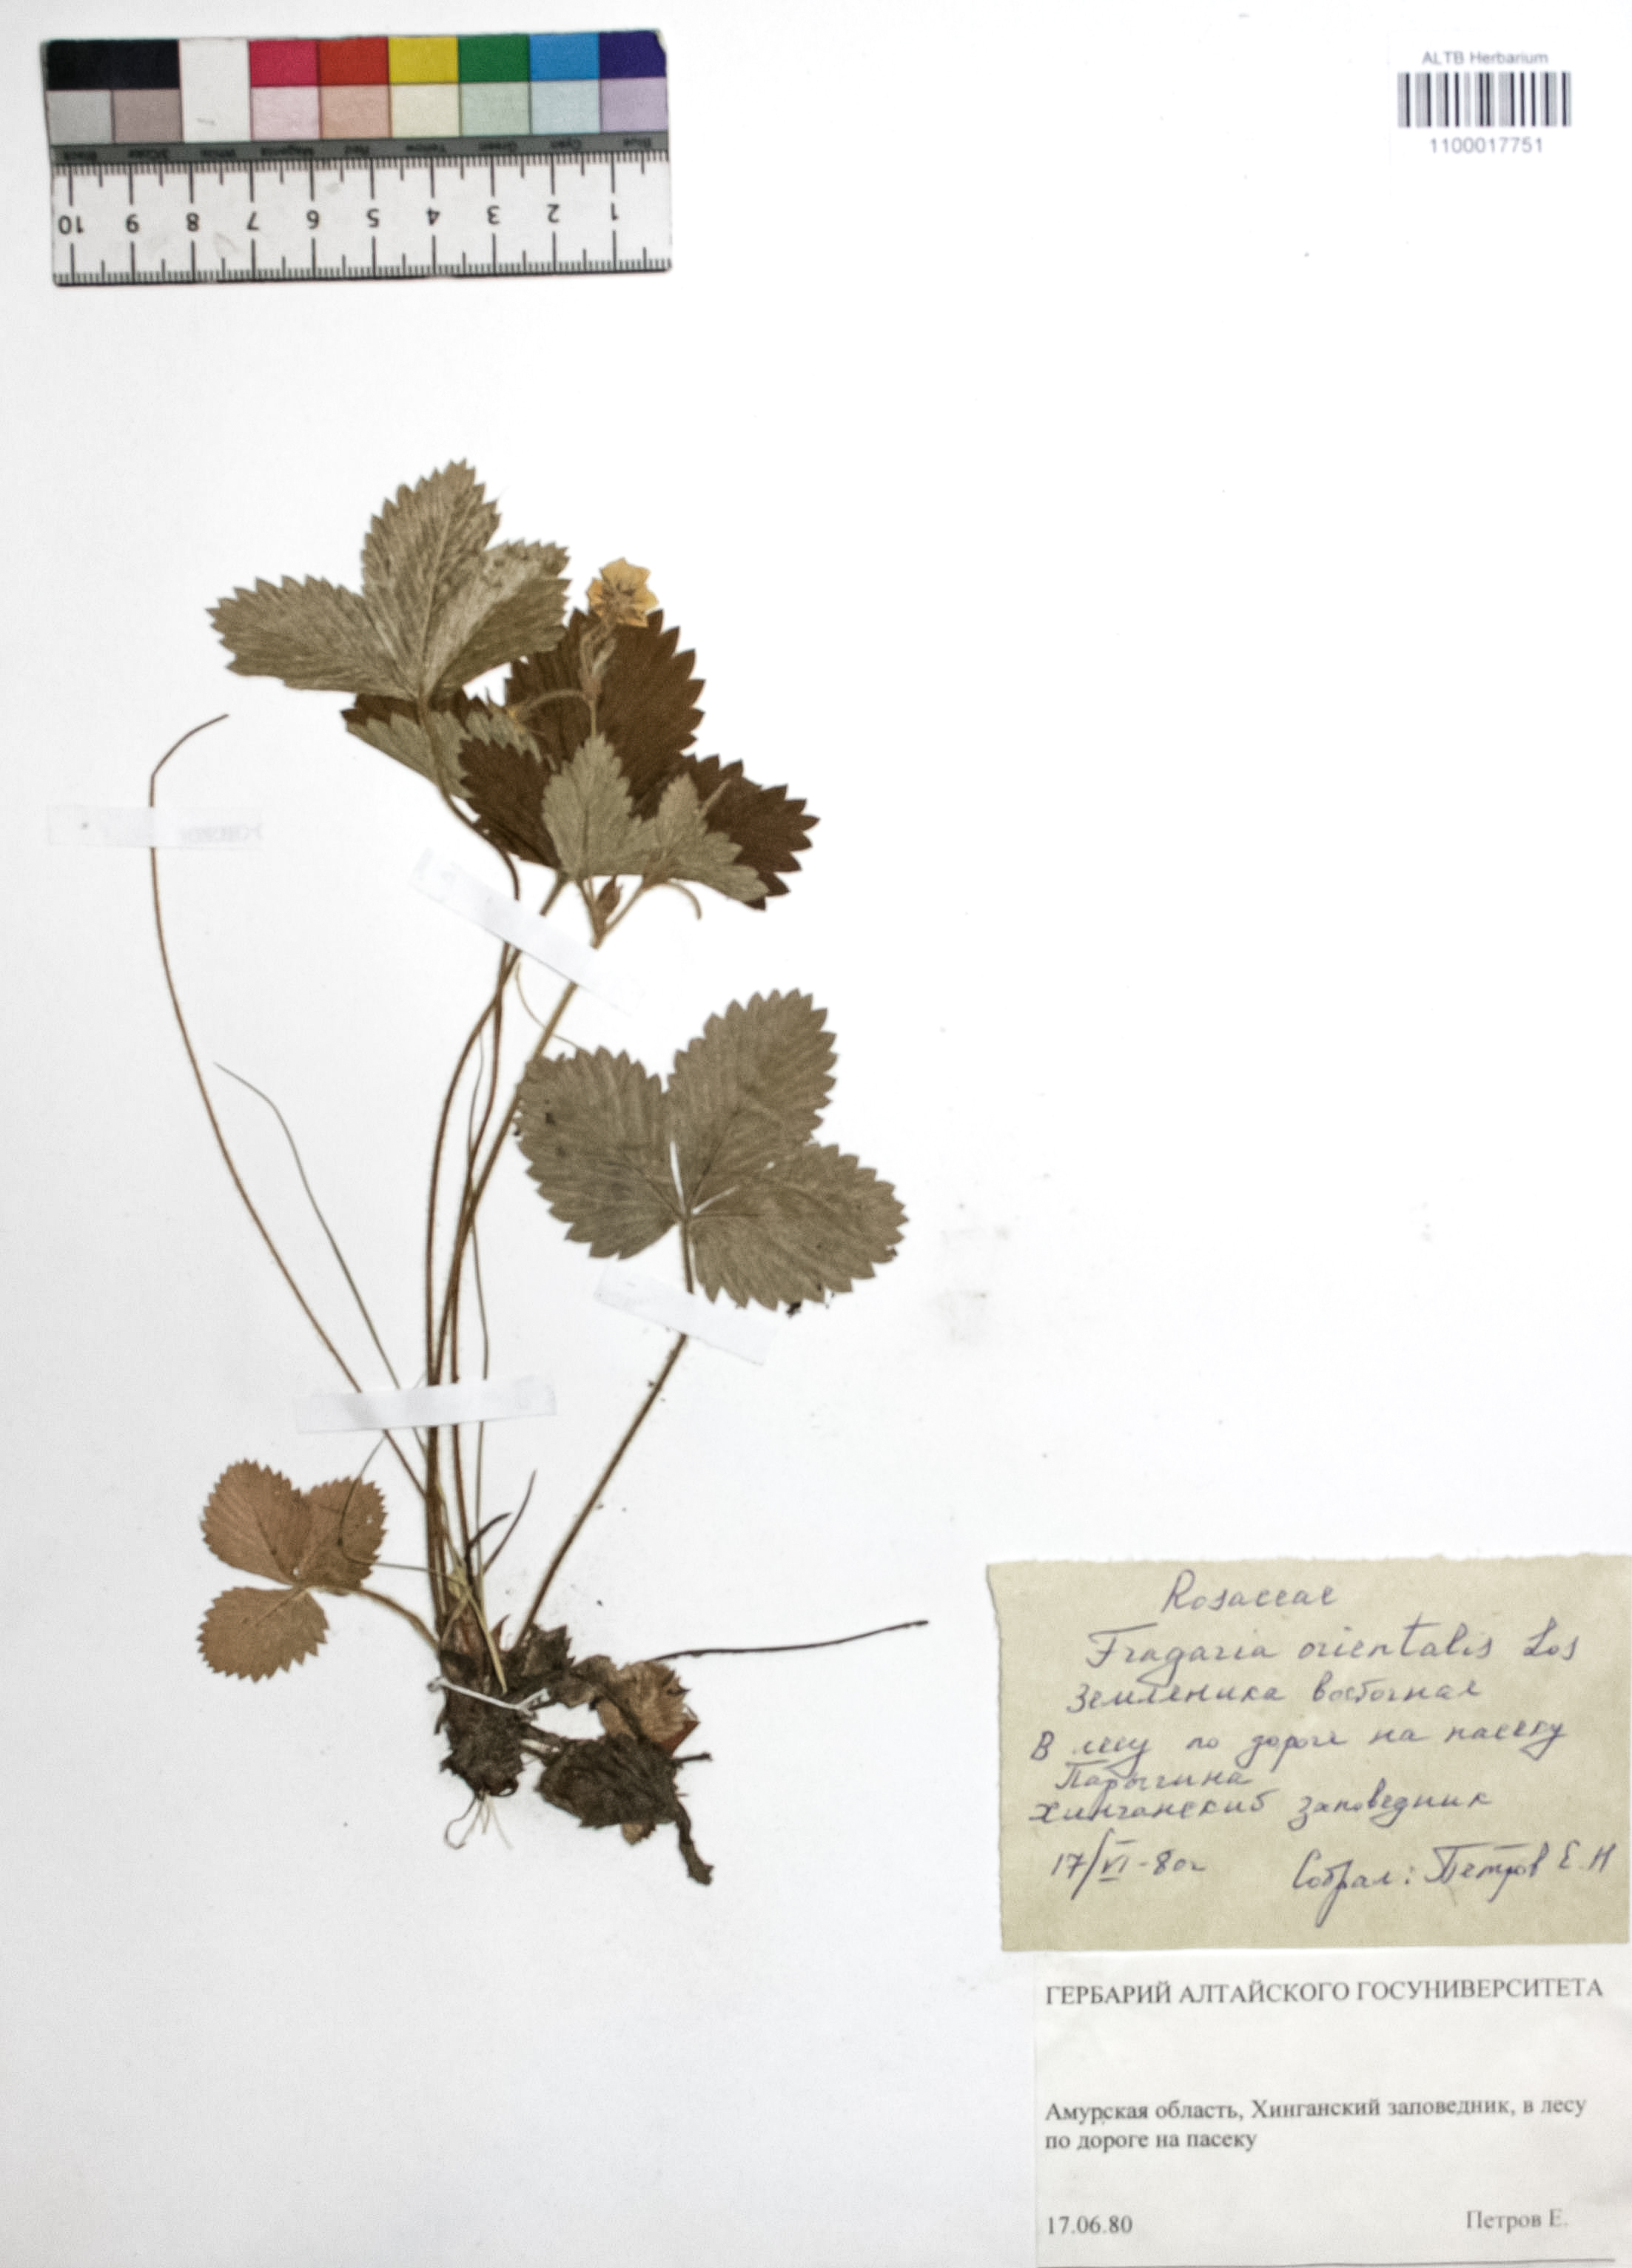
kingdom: Plantae
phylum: Tracheophyta
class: Magnoliopsida
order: Rosales
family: Rosaceae
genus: Fragaria
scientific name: Fragaria orientalis
